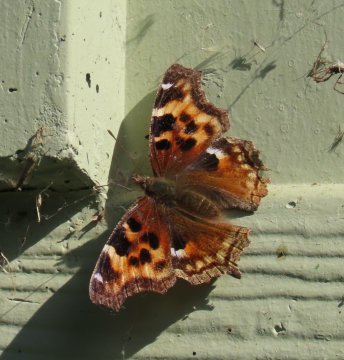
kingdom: Animalia
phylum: Arthropoda
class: Insecta
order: Lepidoptera
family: Nymphalidae
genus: Polygonia
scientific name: Polygonia vaualbum
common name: Compton Tortoiseshell
